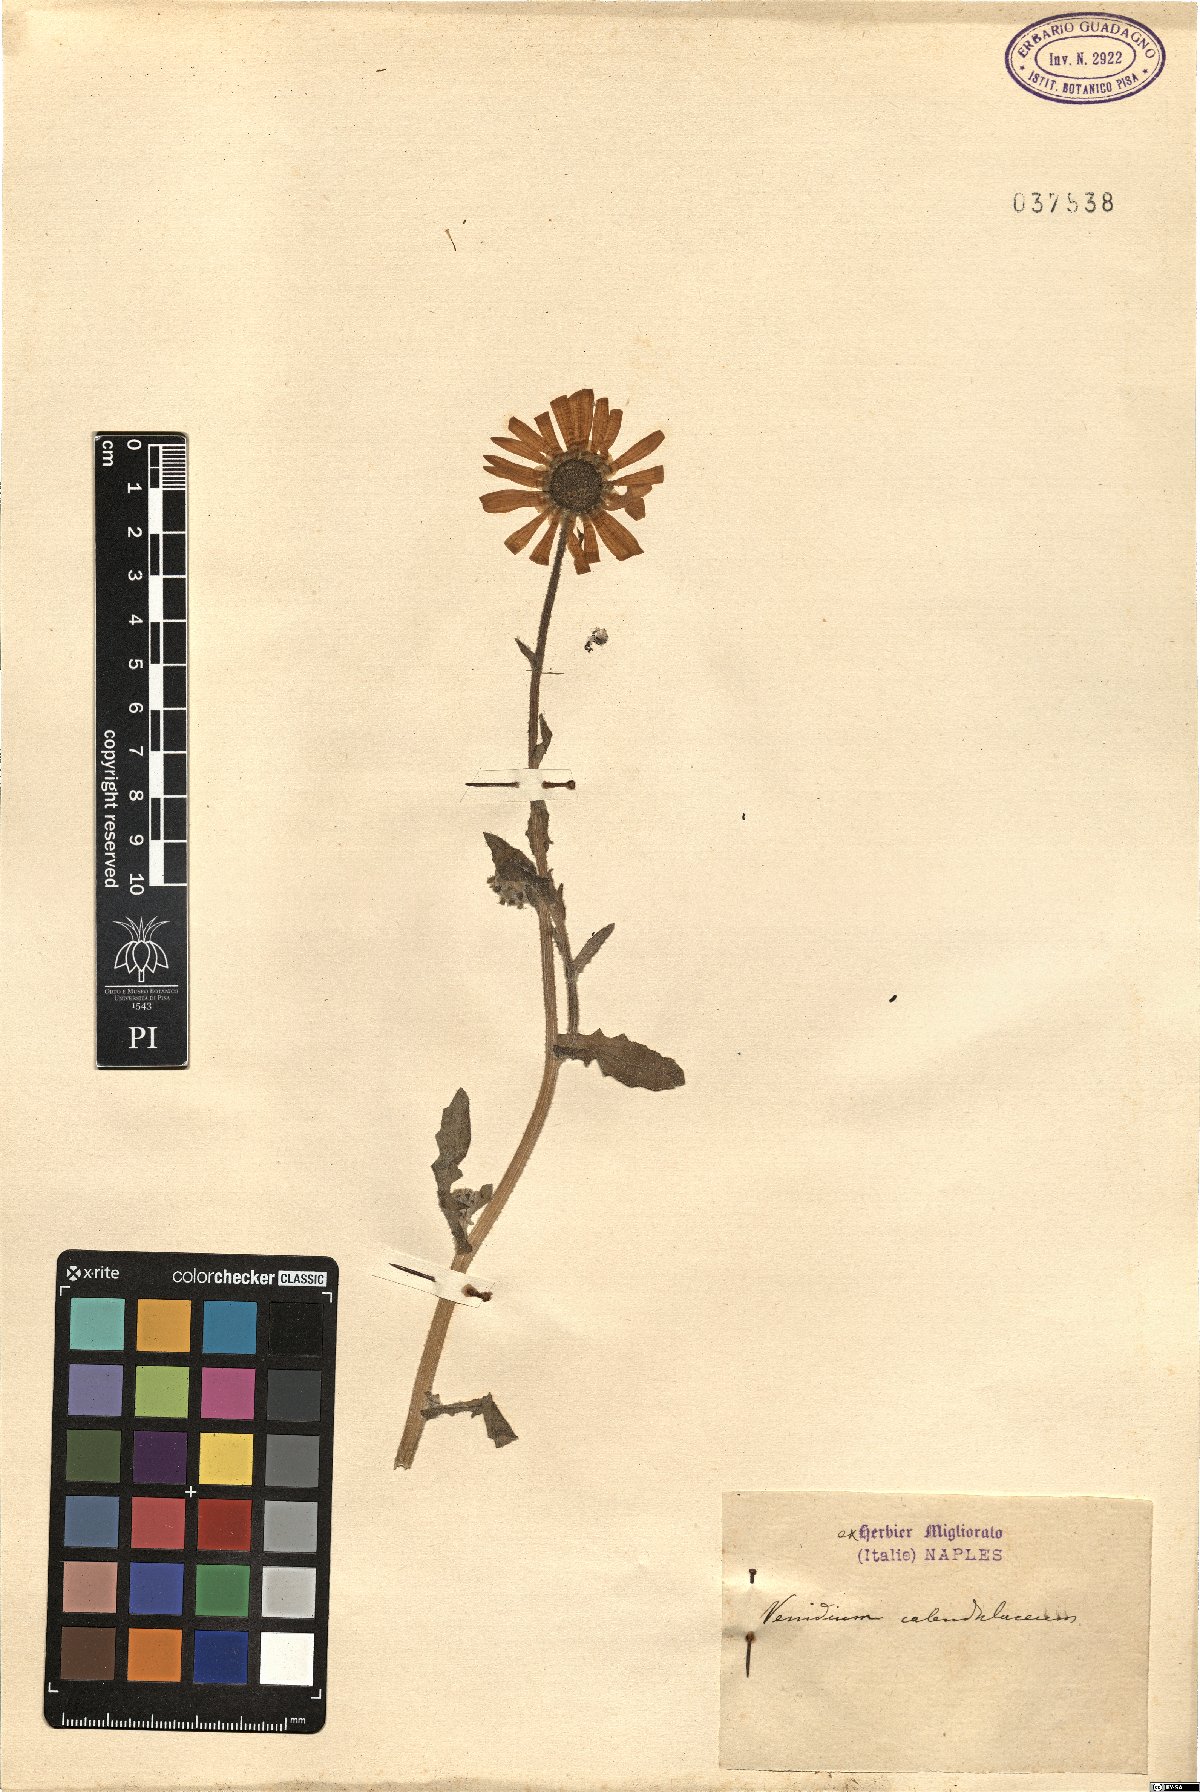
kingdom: Plantae
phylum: Tracheophyta
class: Magnoliopsida
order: Asterales
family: Asteraceae
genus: Arctotis
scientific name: Arctotis Venidium calendulaceum
